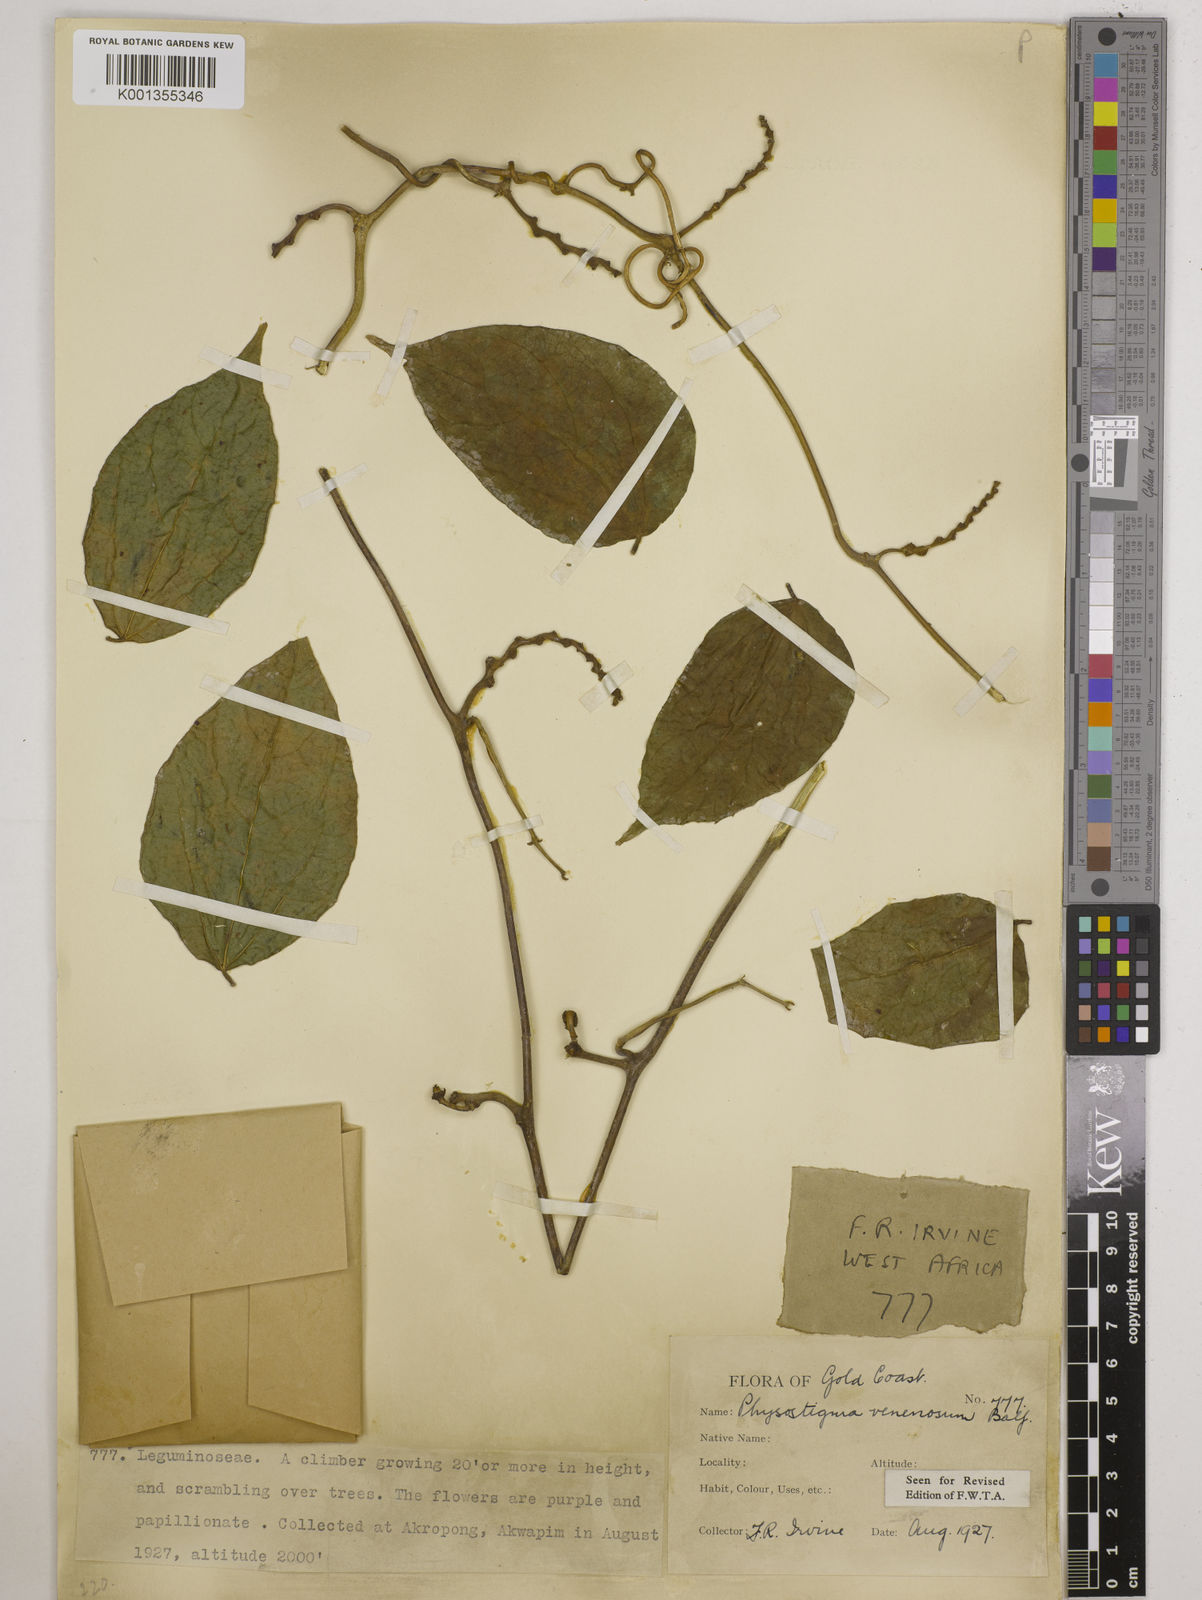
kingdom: Plantae
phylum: Tracheophyta
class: Magnoliopsida
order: Fabales
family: Fabaceae
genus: Physostigma
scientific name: Physostigma venenosum
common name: Calabar-bean
